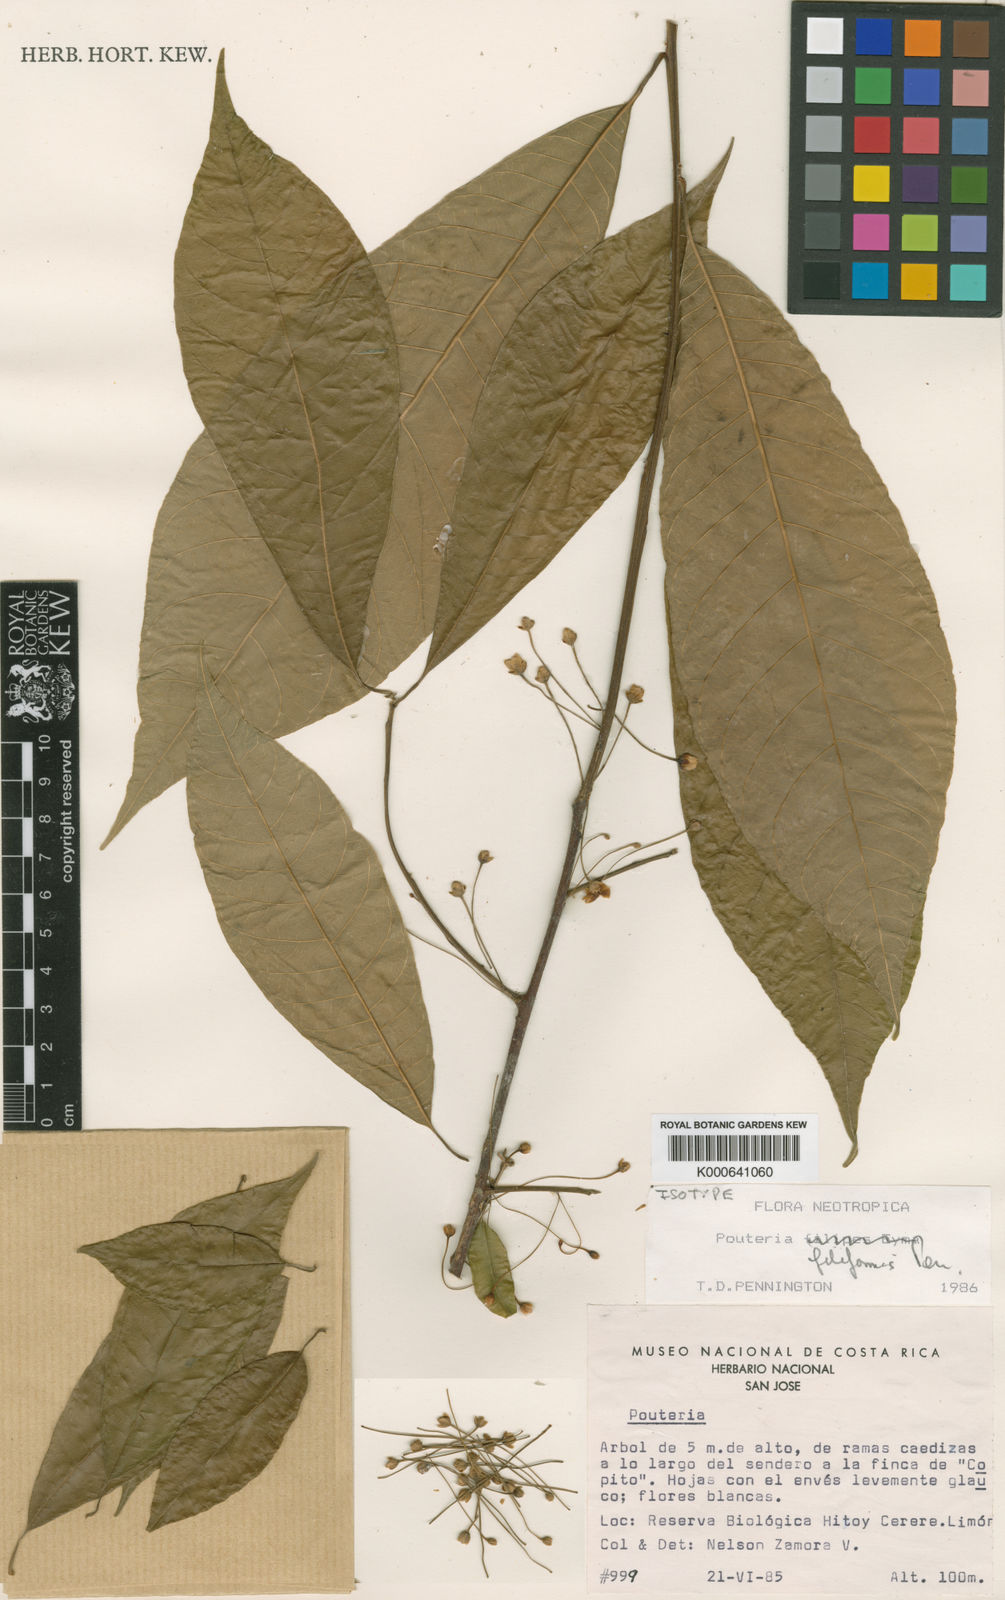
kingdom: Plantae
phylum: Tracheophyta
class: Magnoliopsida
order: Ericales
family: Sapotaceae
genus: Pouteria
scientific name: Pouteria filiformis
